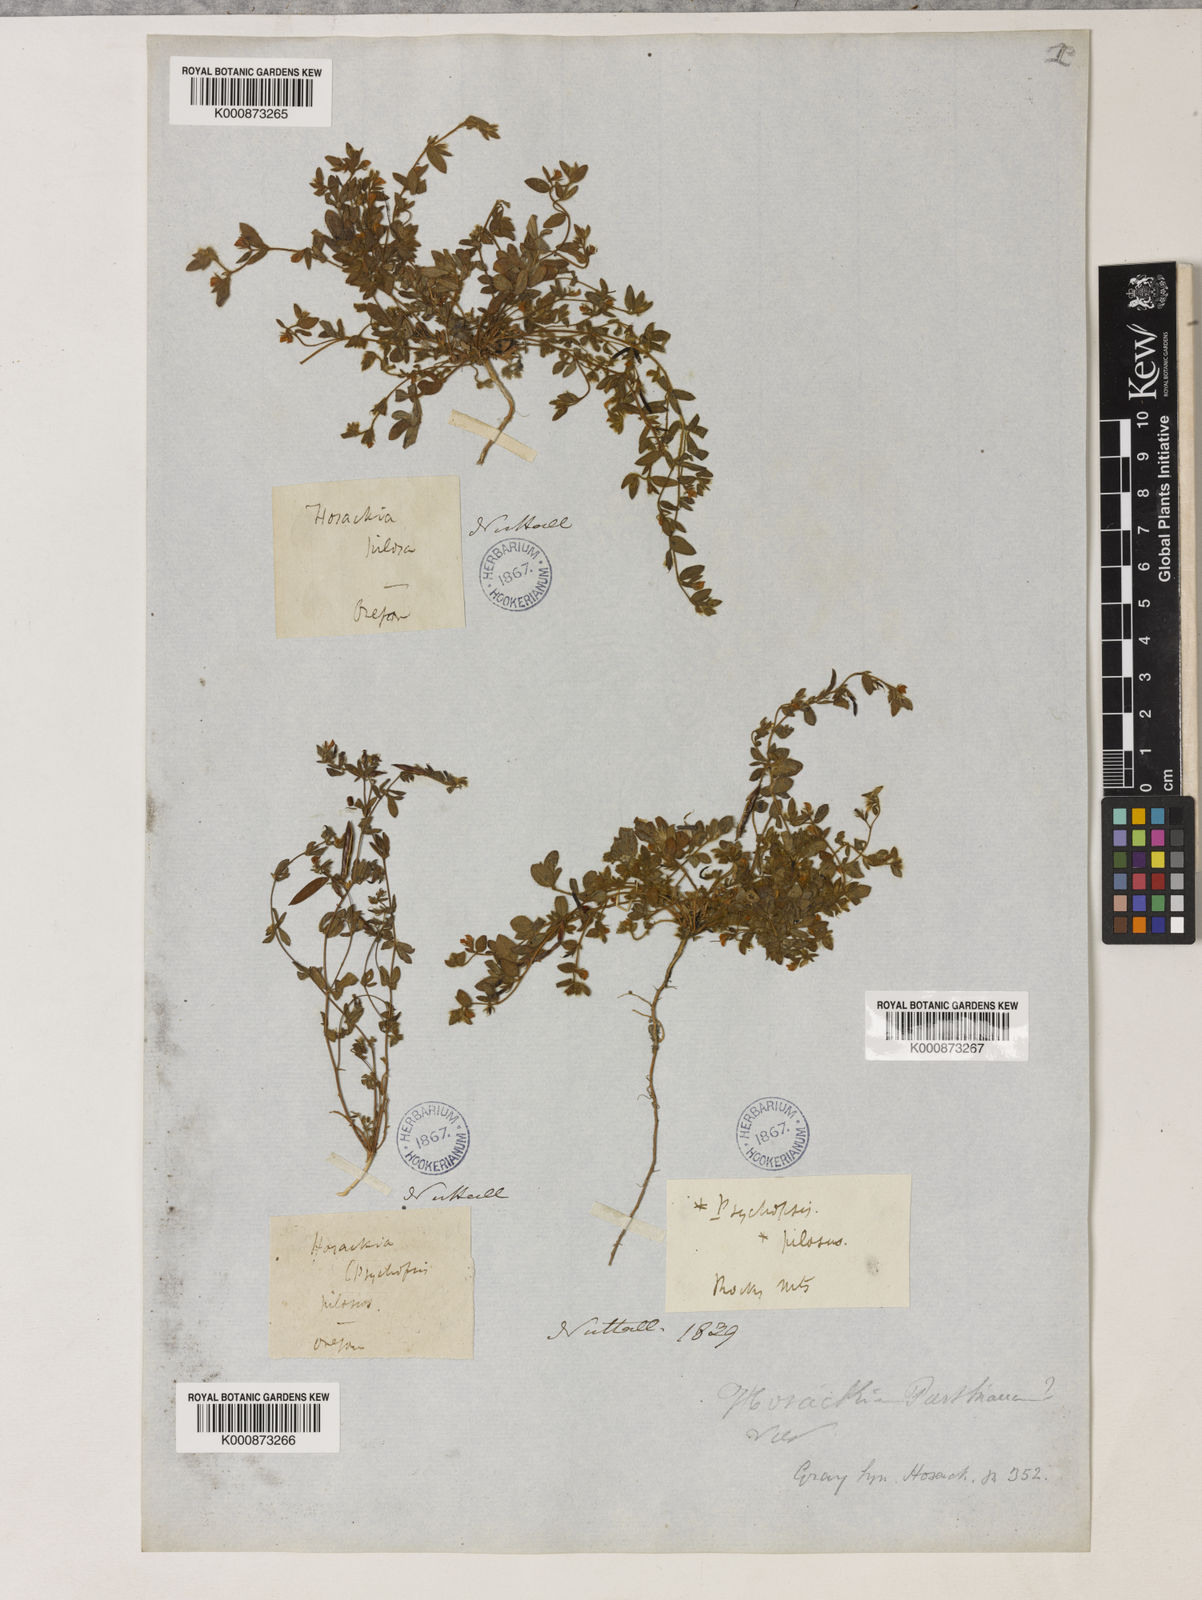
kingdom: Plantae
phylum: Tracheophyta
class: Magnoliopsida
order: Fabales
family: Fabaceae
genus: Collaea
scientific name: Collaea speciosa
